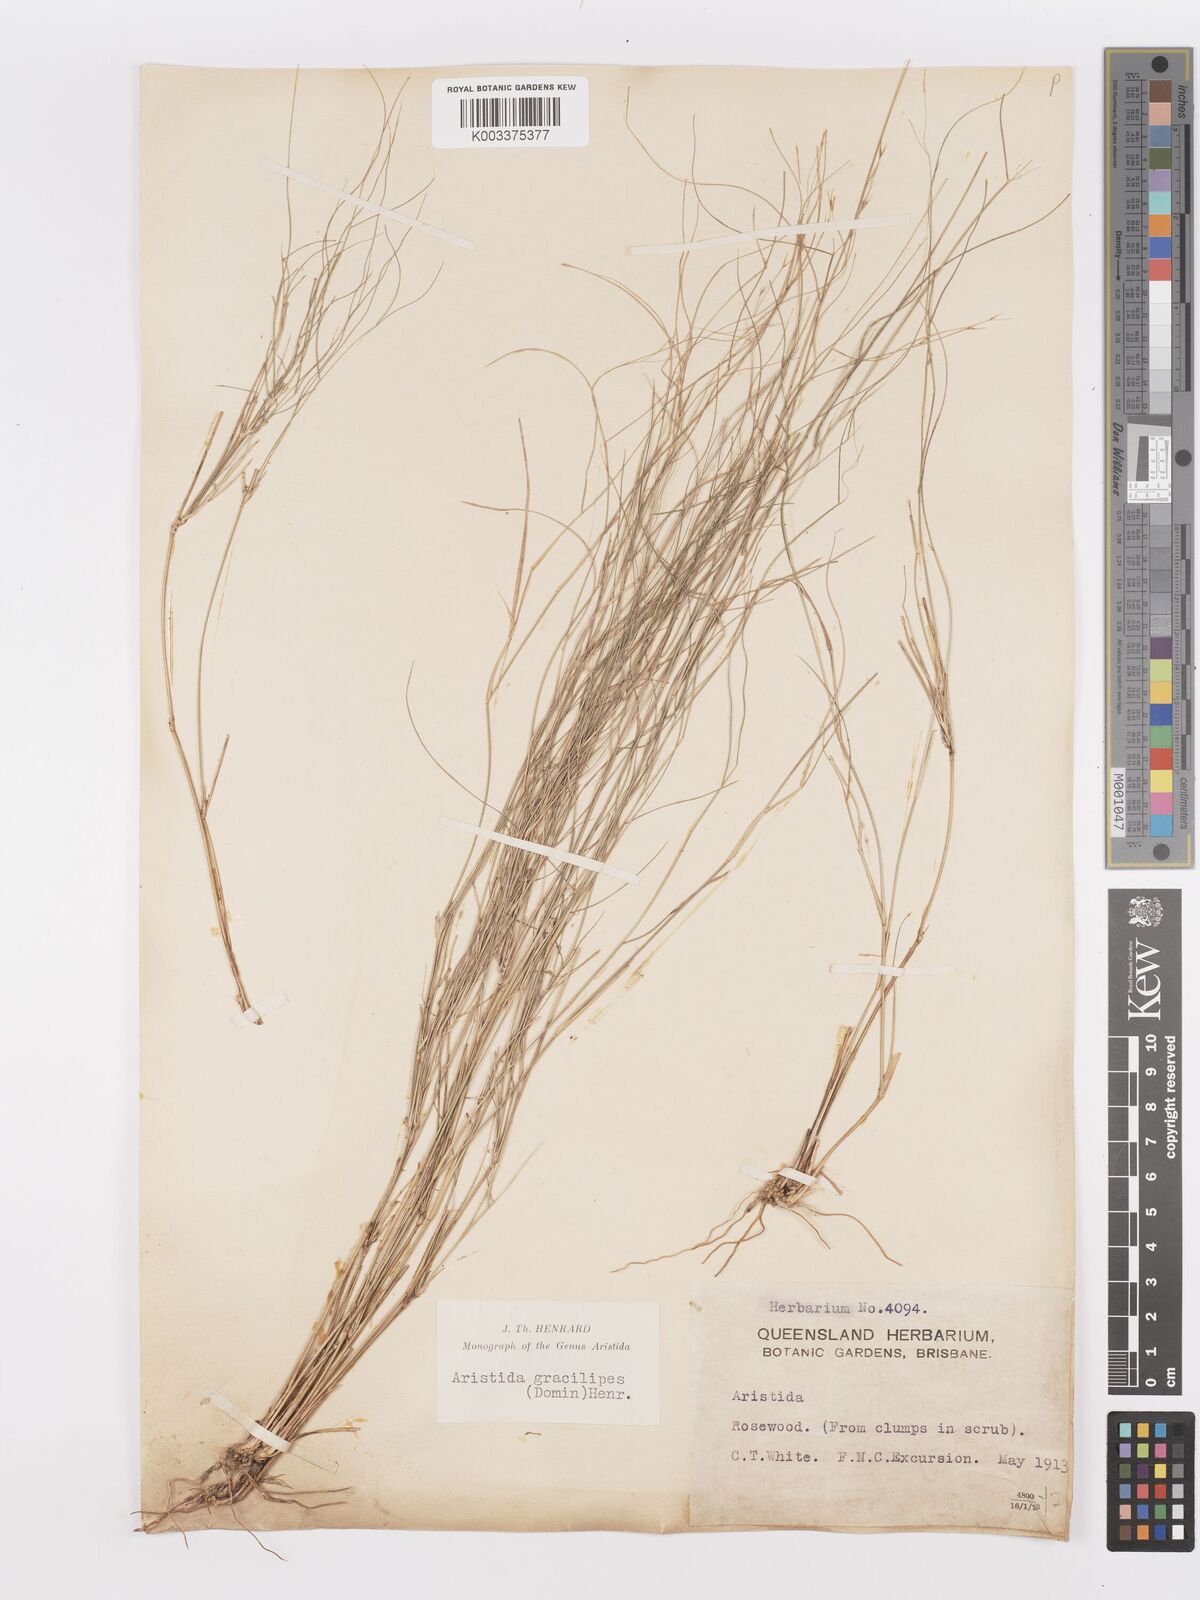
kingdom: Plantae
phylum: Tracheophyta
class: Liliopsida
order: Poales
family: Poaceae
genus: Aristida
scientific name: Aristida gracilipes
